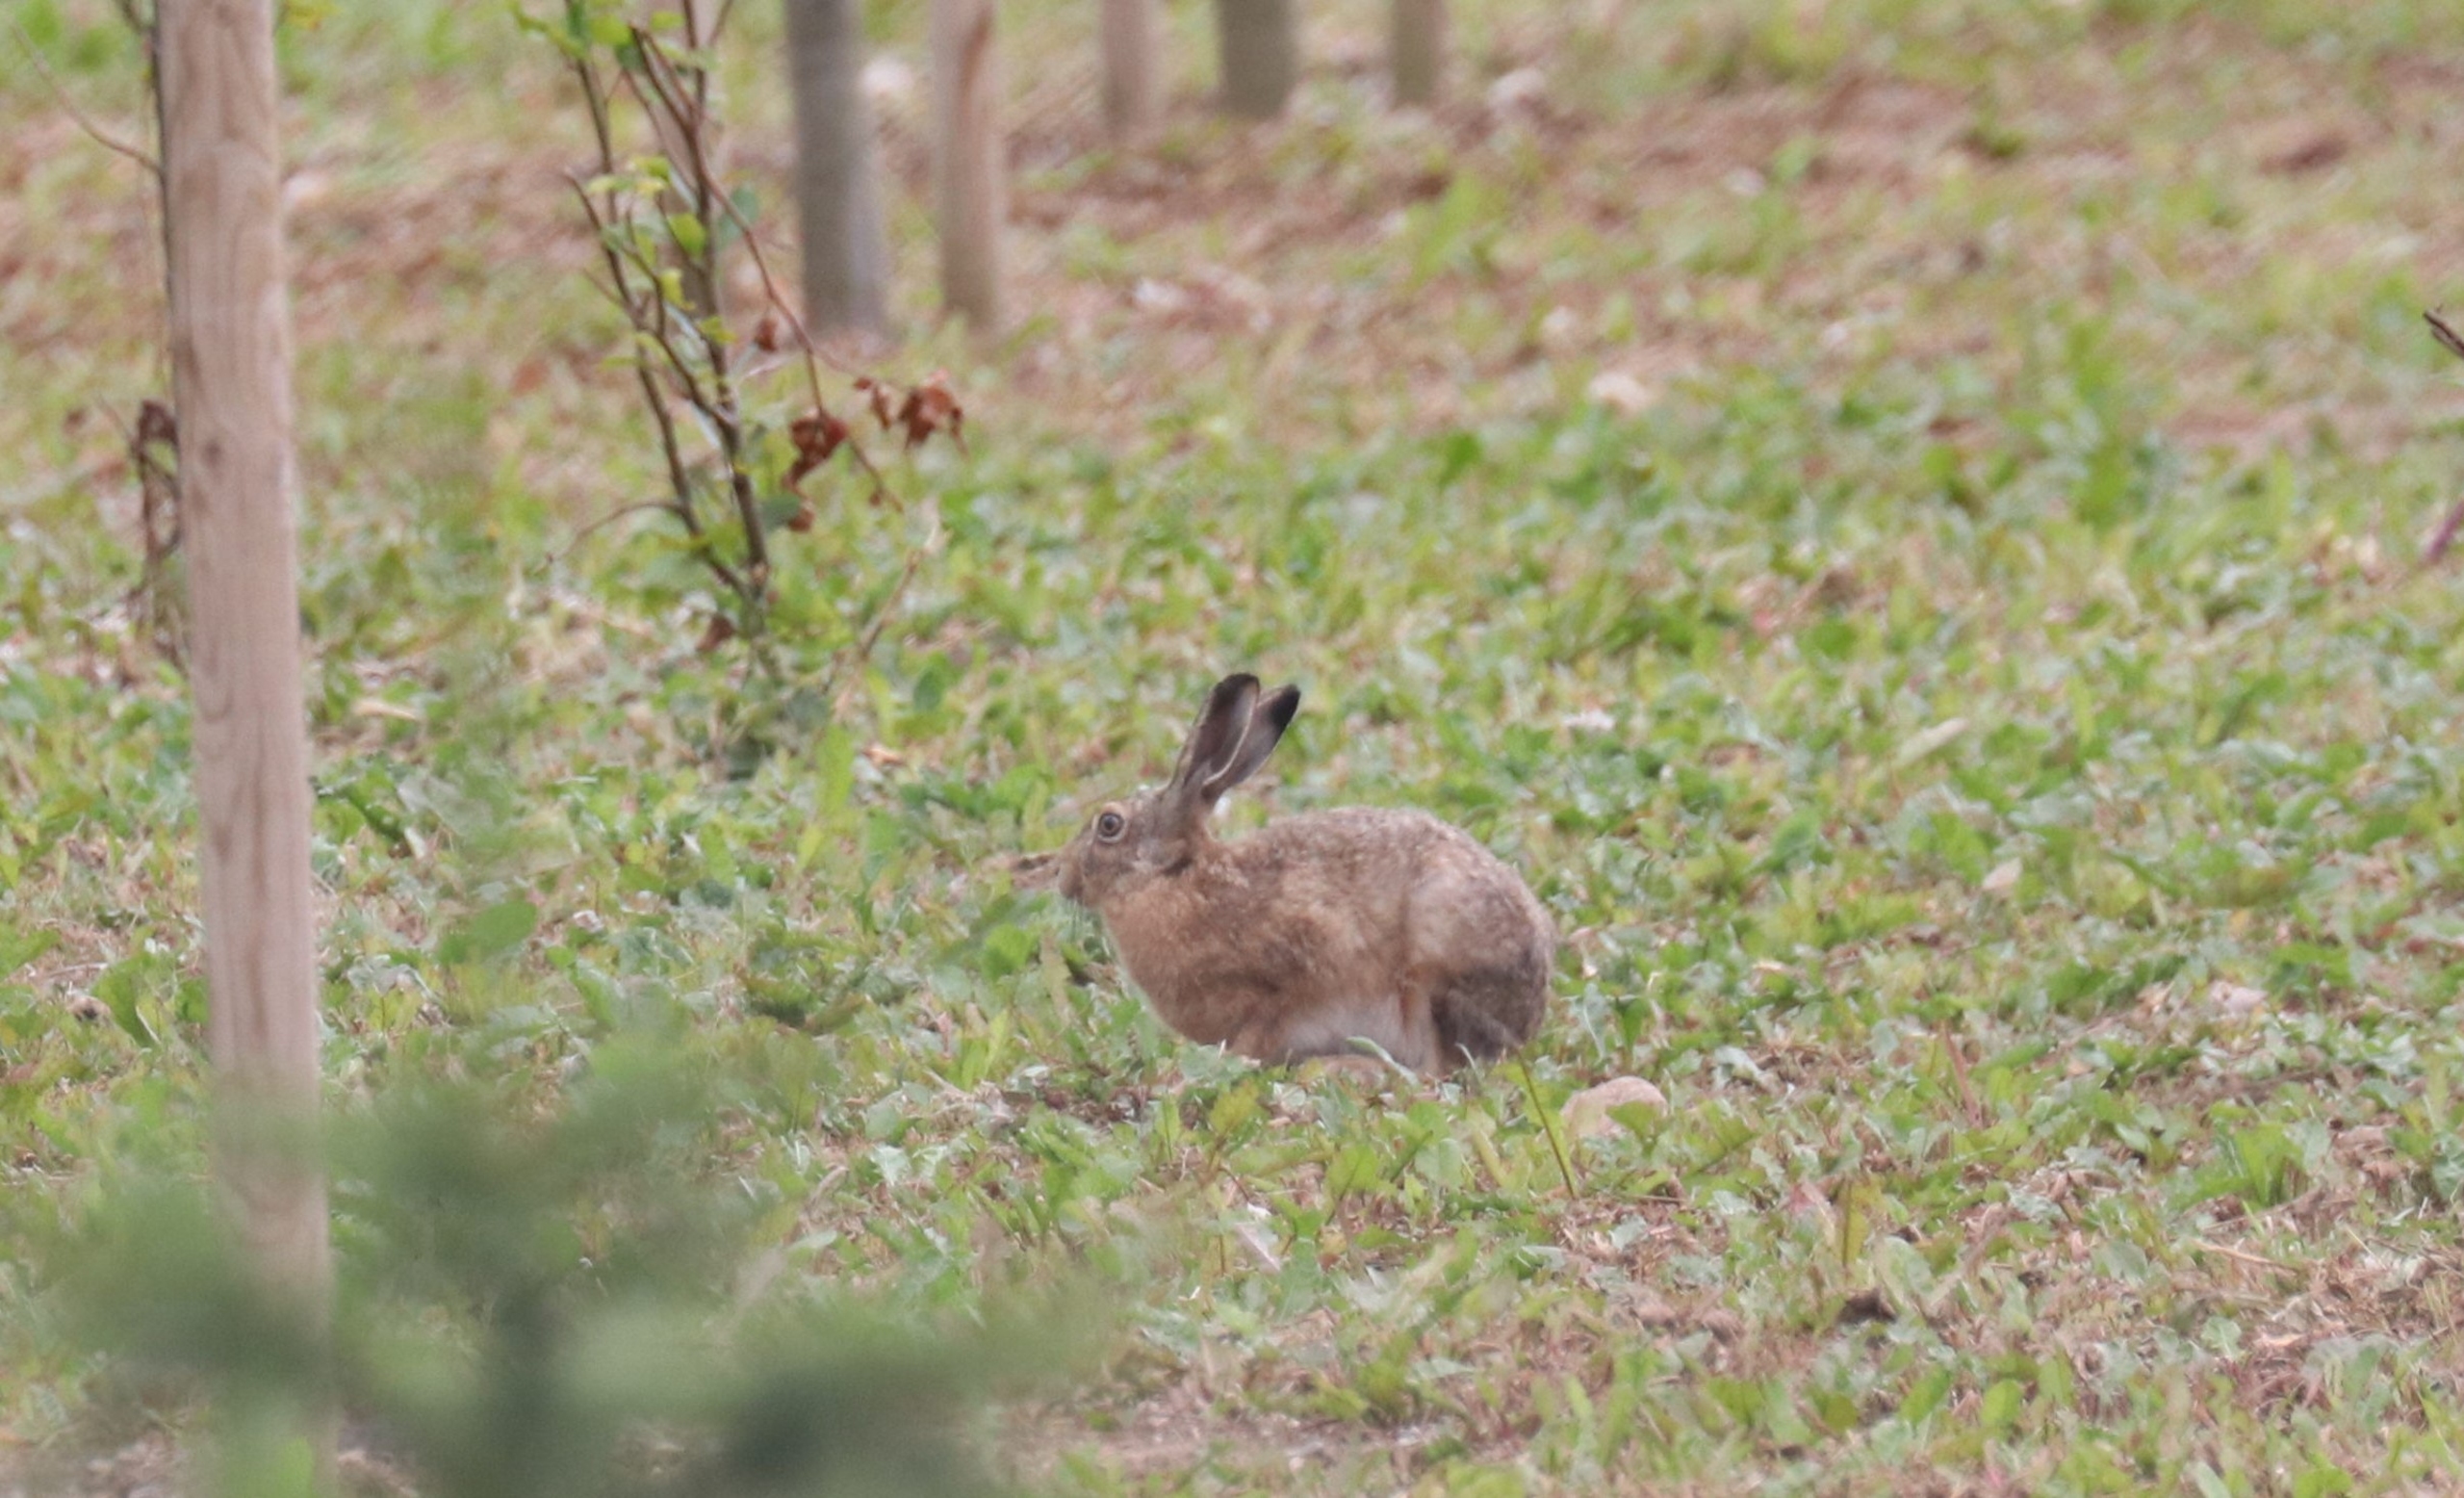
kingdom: Animalia
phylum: Chordata
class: Mammalia
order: Lagomorpha
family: Leporidae
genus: Lepus
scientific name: Lepus europaeus
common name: Hare
